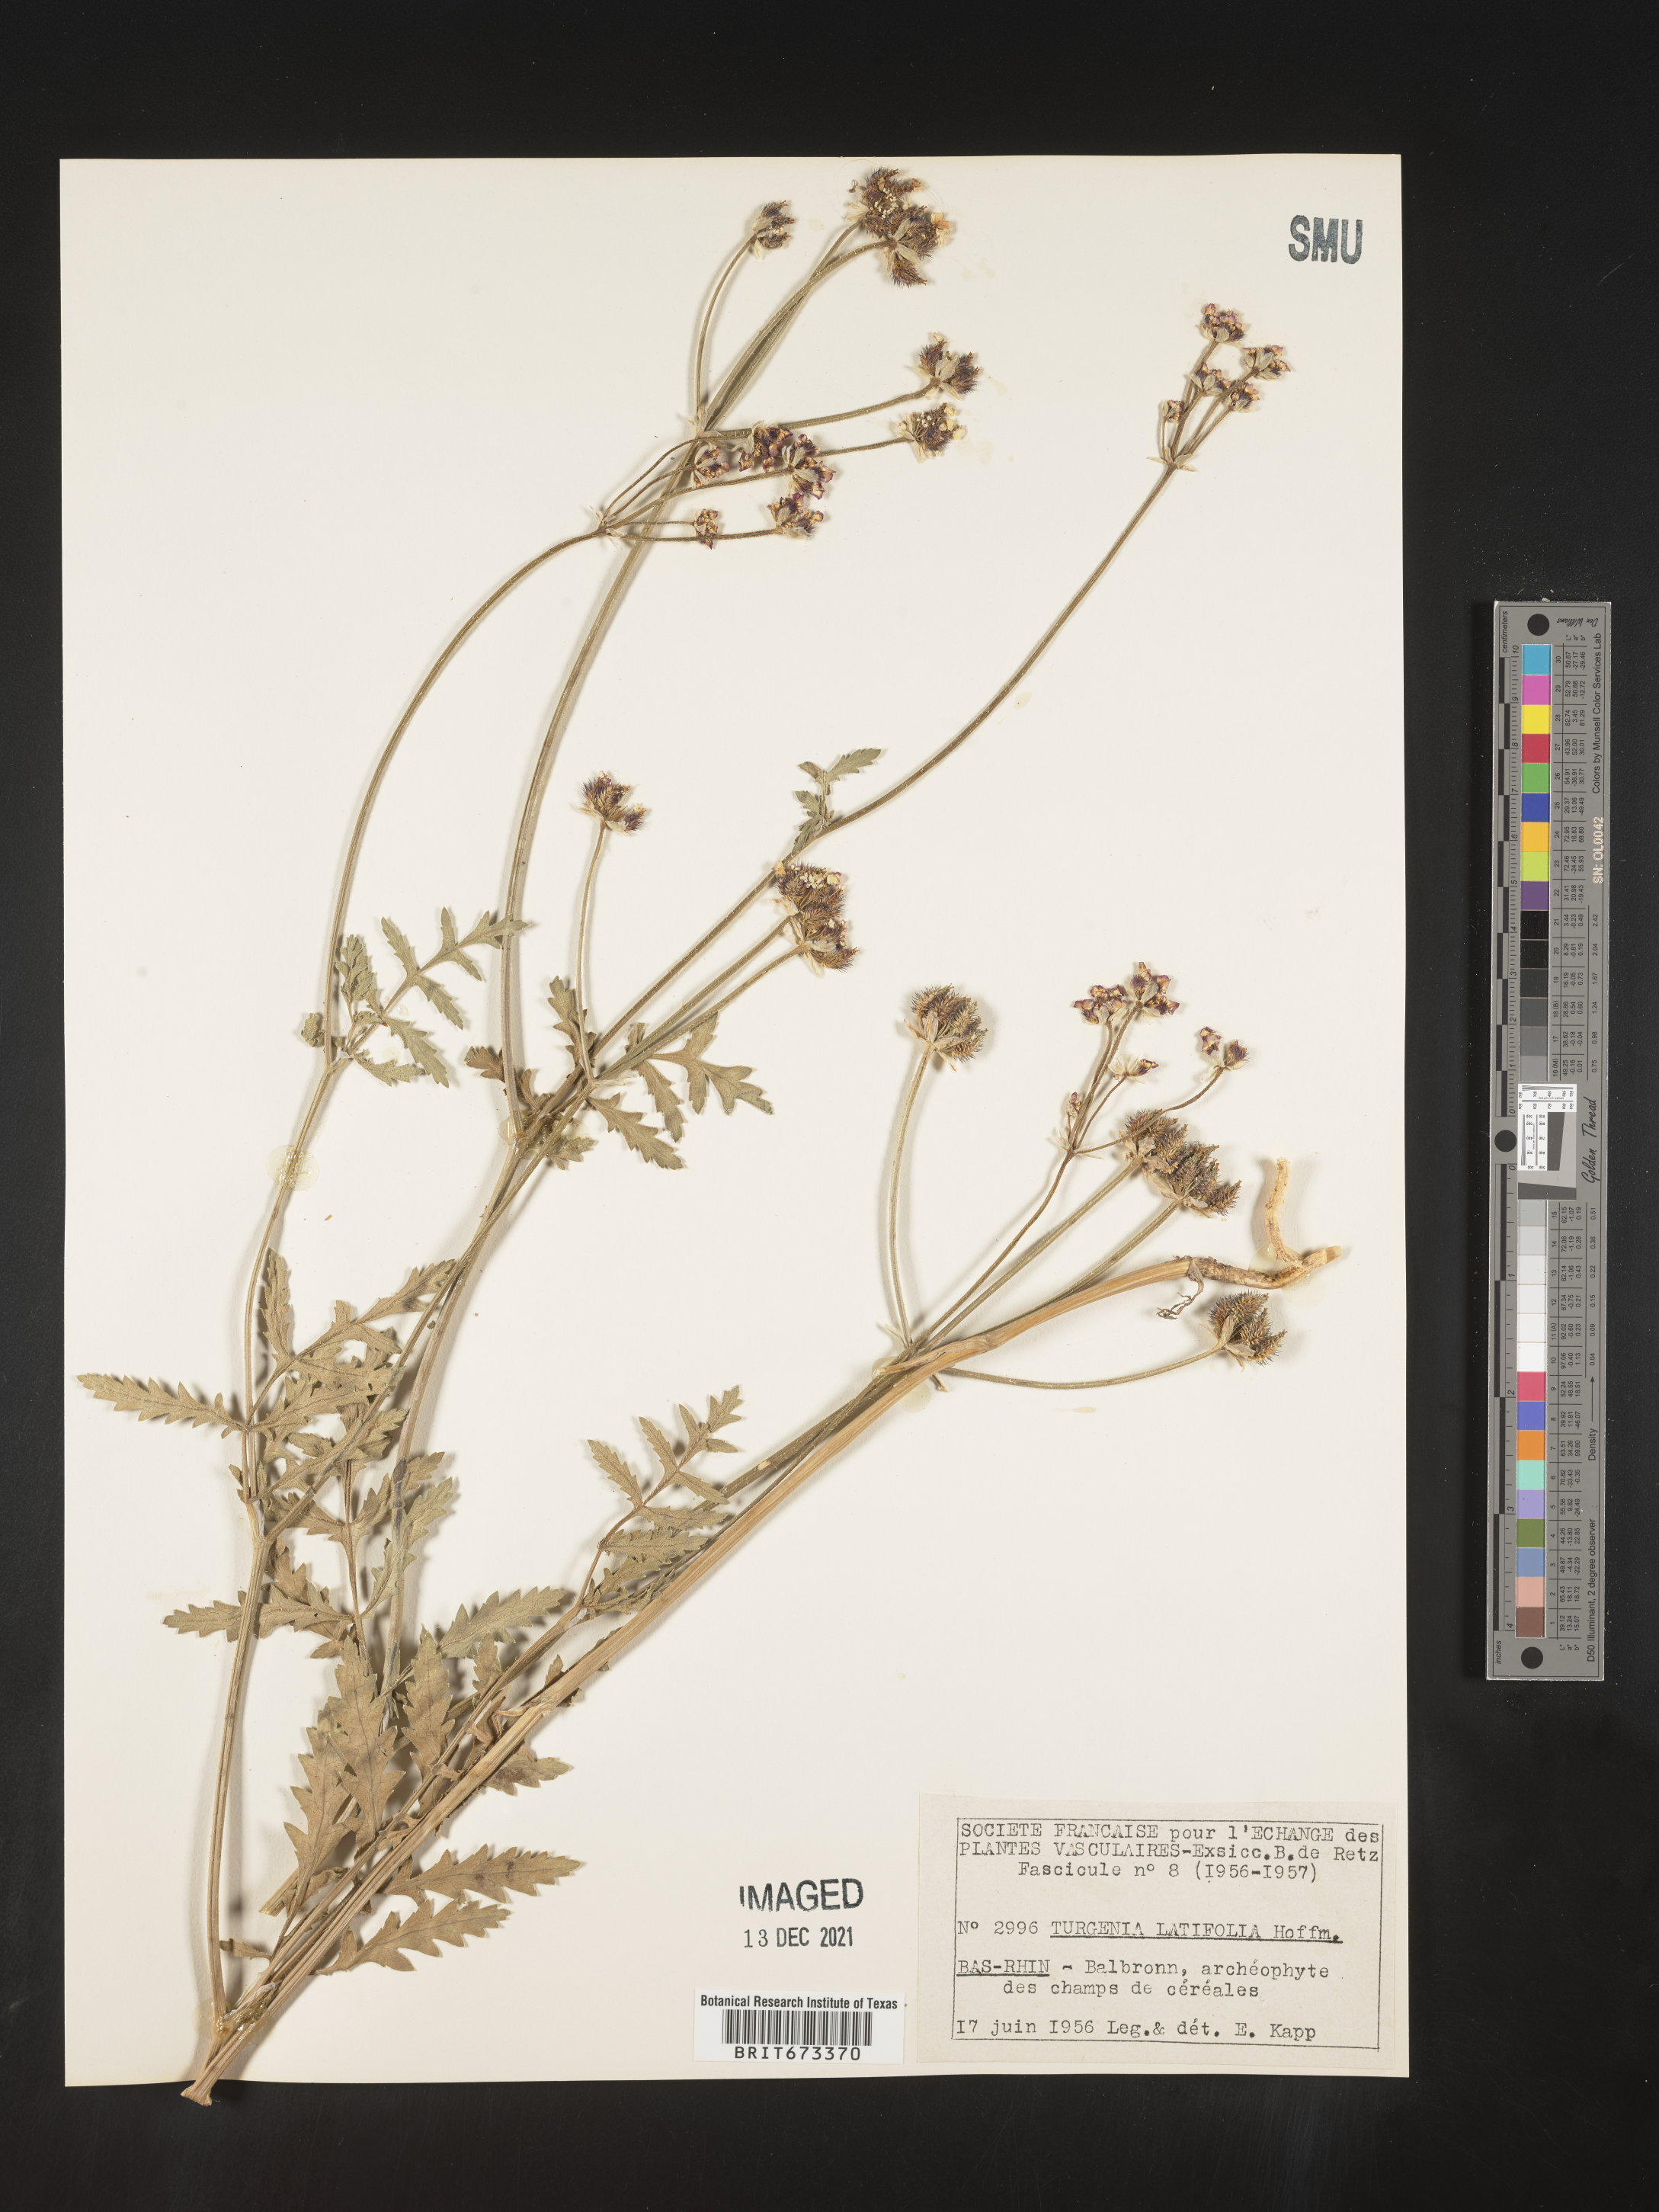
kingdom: Plantae
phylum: Tracheophyta
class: Magnoliopsida
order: Apiales
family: Apiaceae
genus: Turgenia
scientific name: Turgenia
